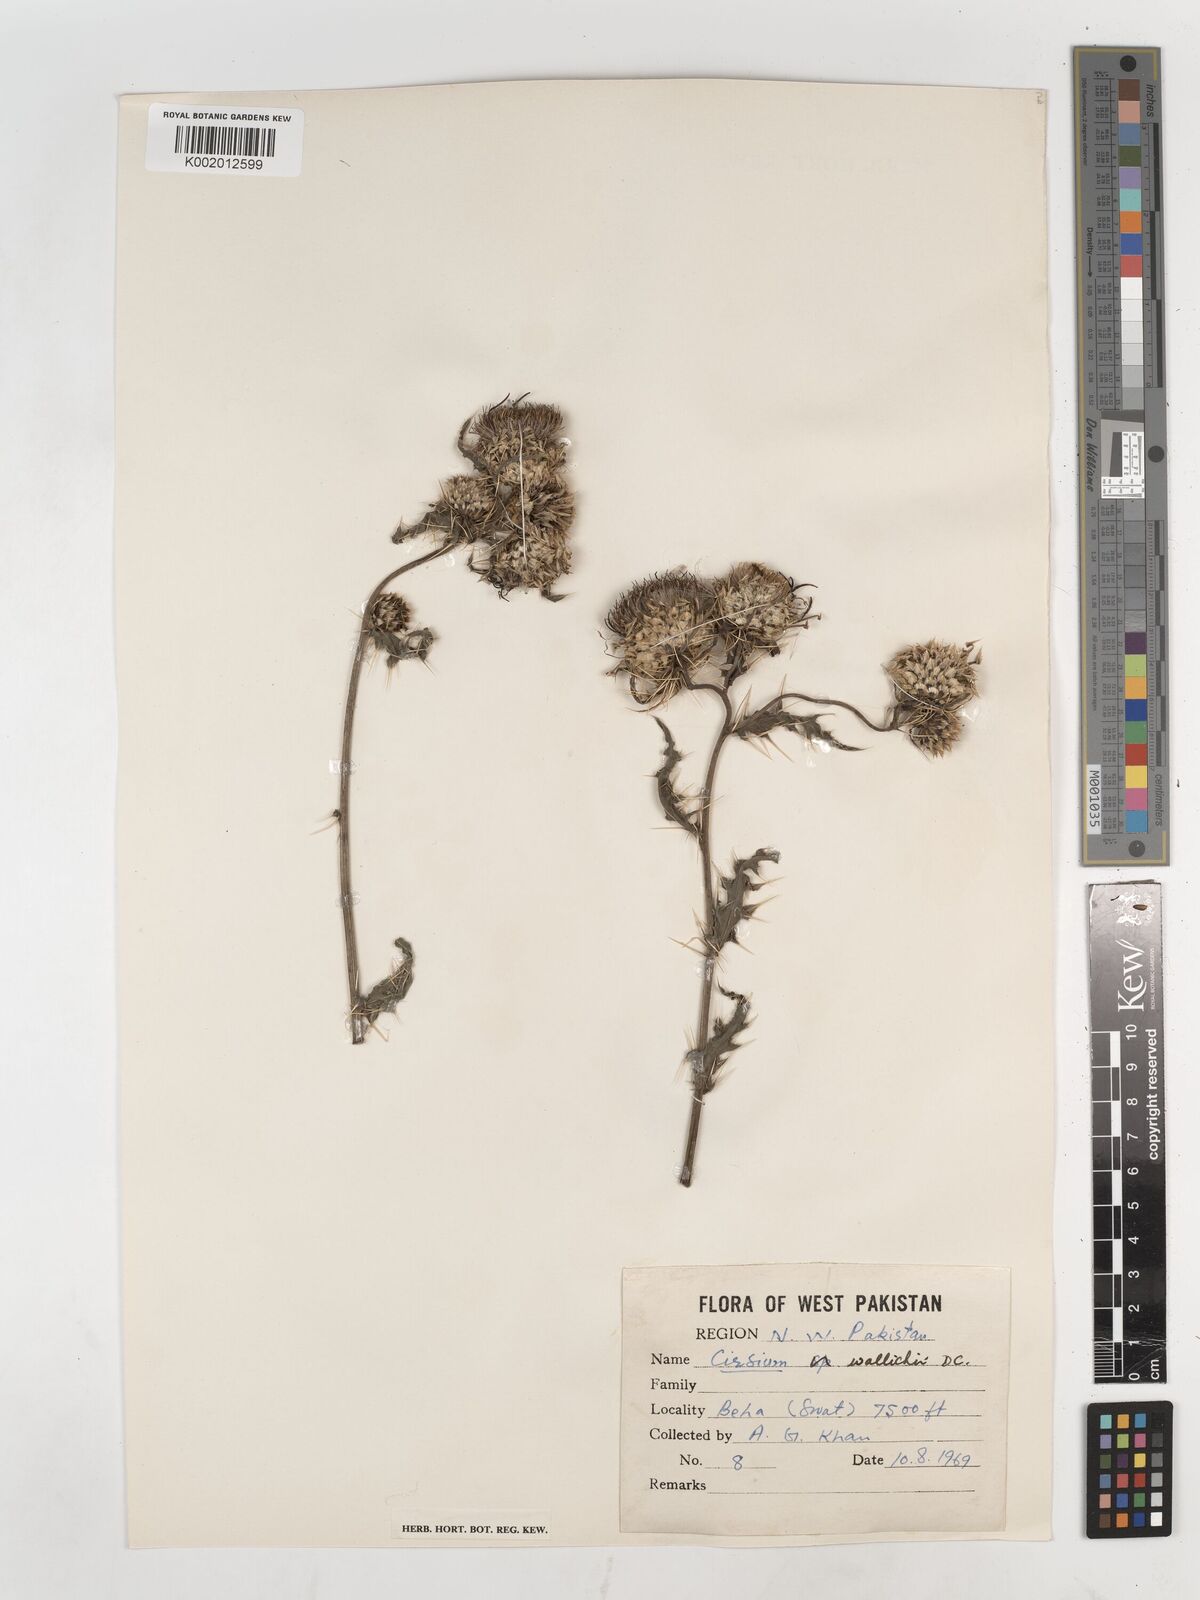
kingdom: Plantae
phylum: Tracheophyta
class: Magnoliopsida
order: Asterales
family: Asteraceae
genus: Cirsium
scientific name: Cirsium wallichii
